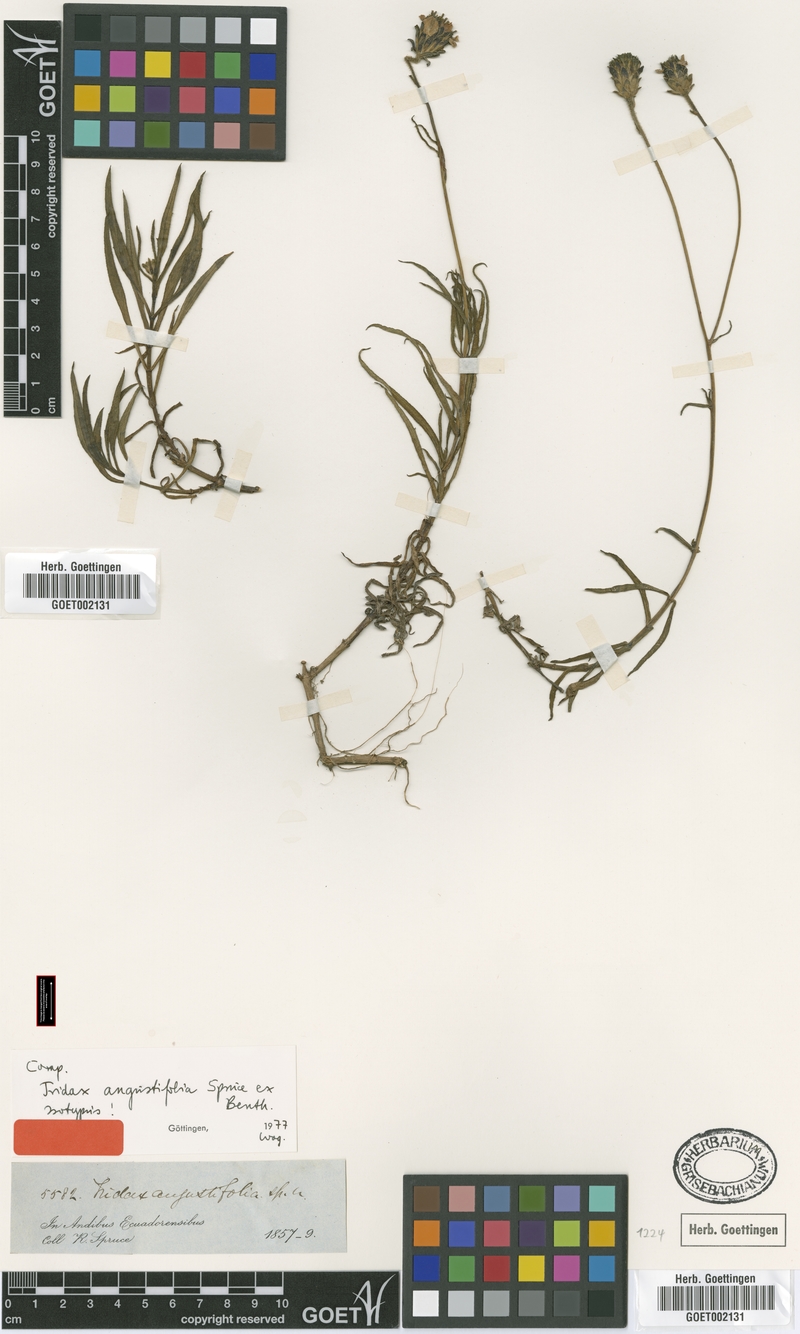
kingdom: Plantae
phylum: Tracheophyta
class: Magnoliopsida
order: Asterales
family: Asteraceae
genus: Tridax
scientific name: Tridax angustifolia
